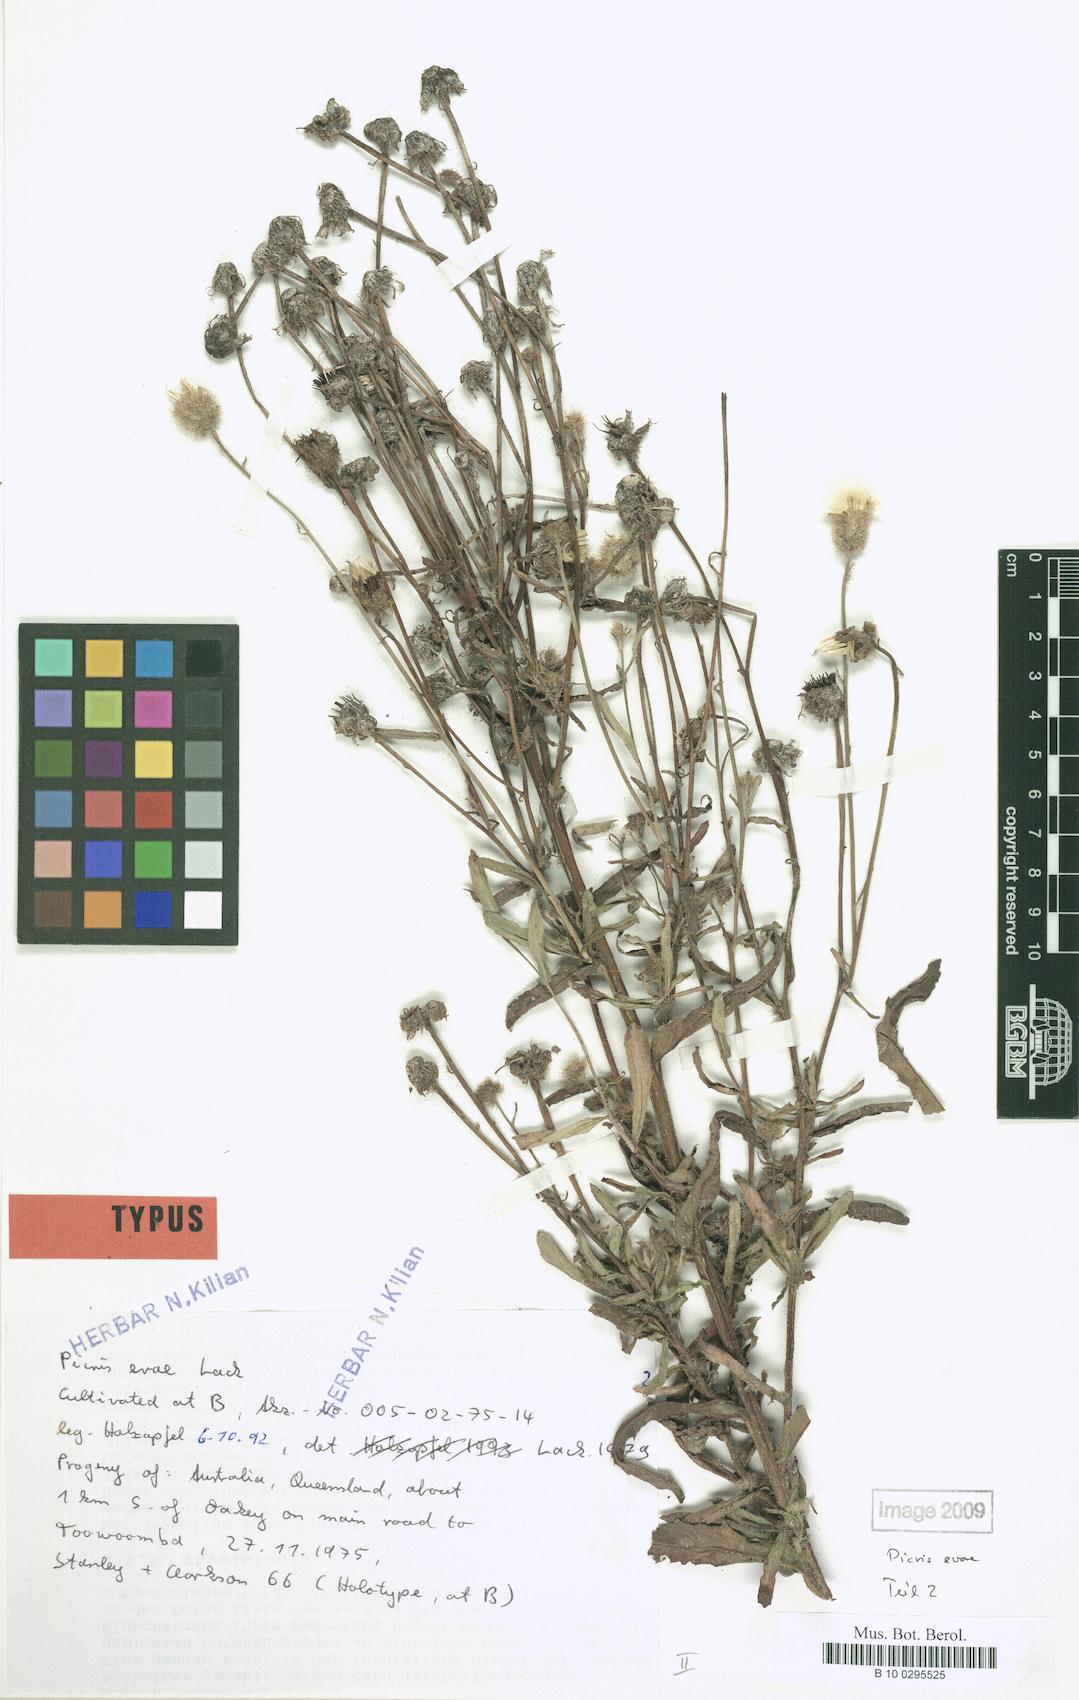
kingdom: Plantae
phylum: Tracheophyta
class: Magnoliopsida
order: Asterales
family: Asteraceae
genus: Picris
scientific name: Picris evae
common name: Hawkweed
